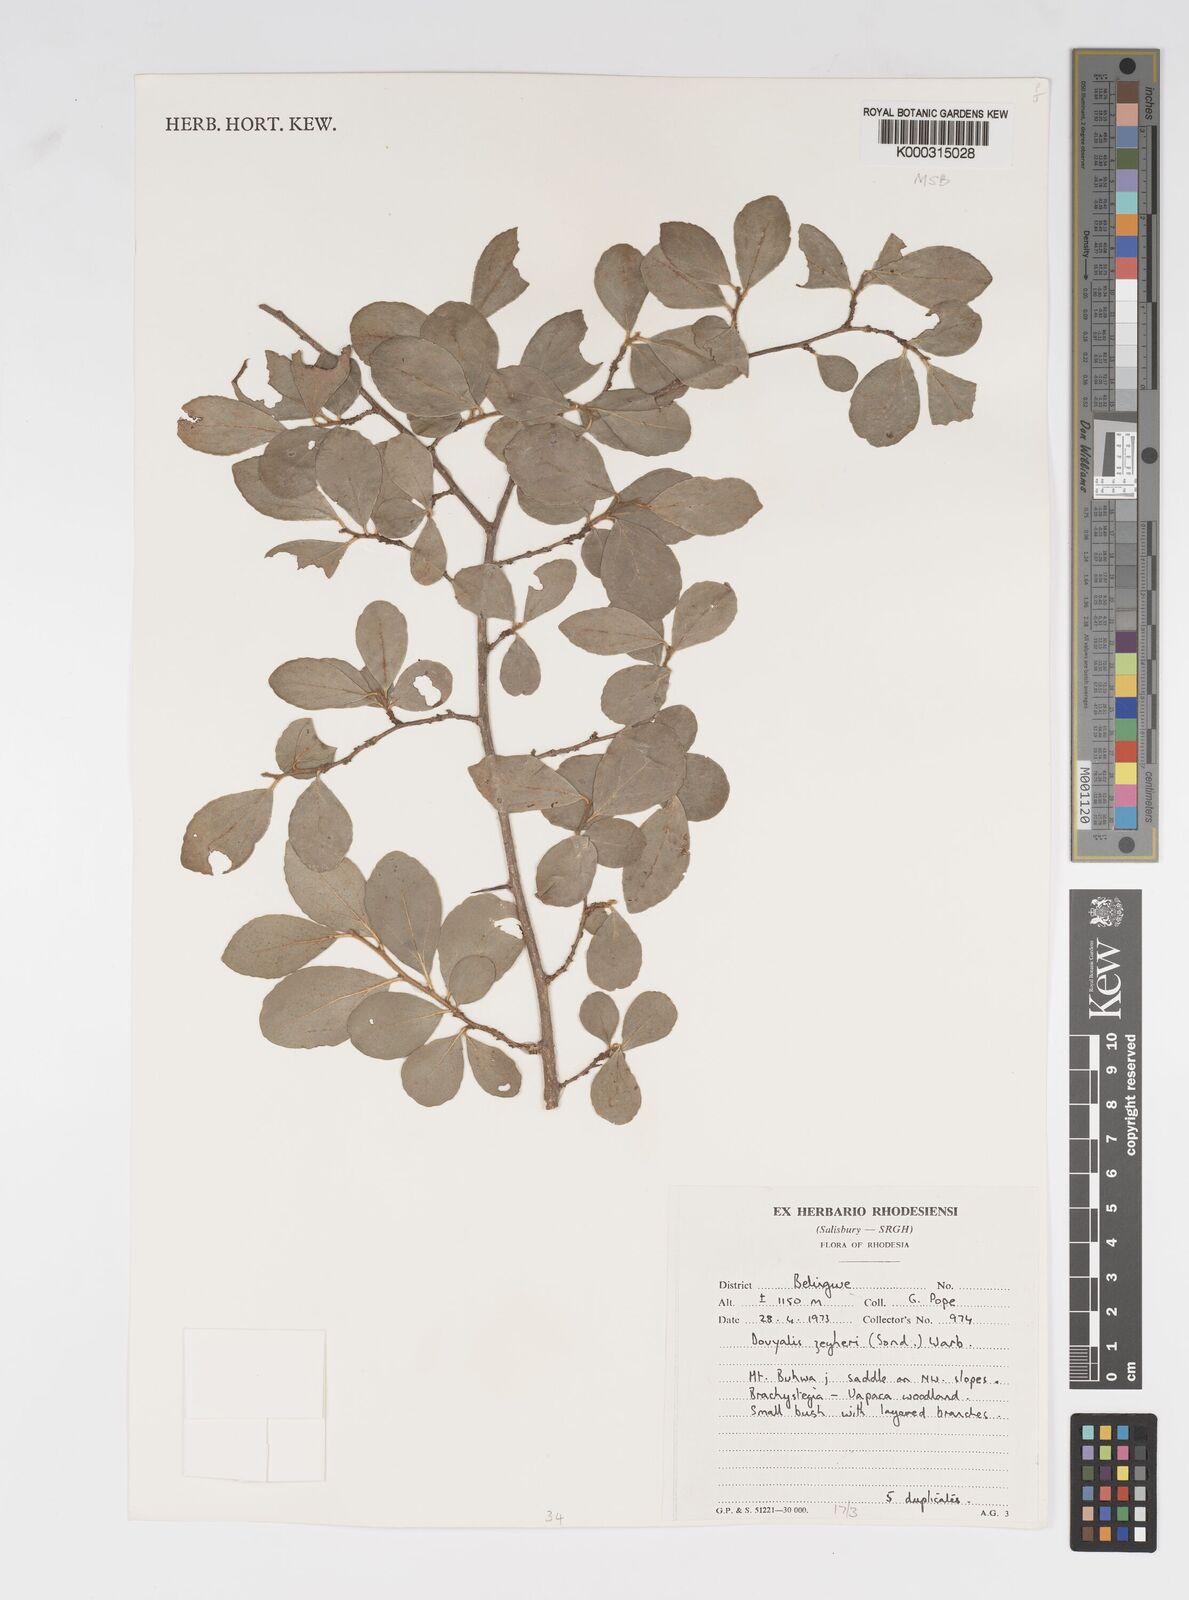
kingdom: Plantae
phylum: Tracheophyta
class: Magnoliopsida
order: Malpighiales
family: Salicaceae
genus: Dovyalis
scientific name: Dovyalis zeyheri
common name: Apricot sourberry
